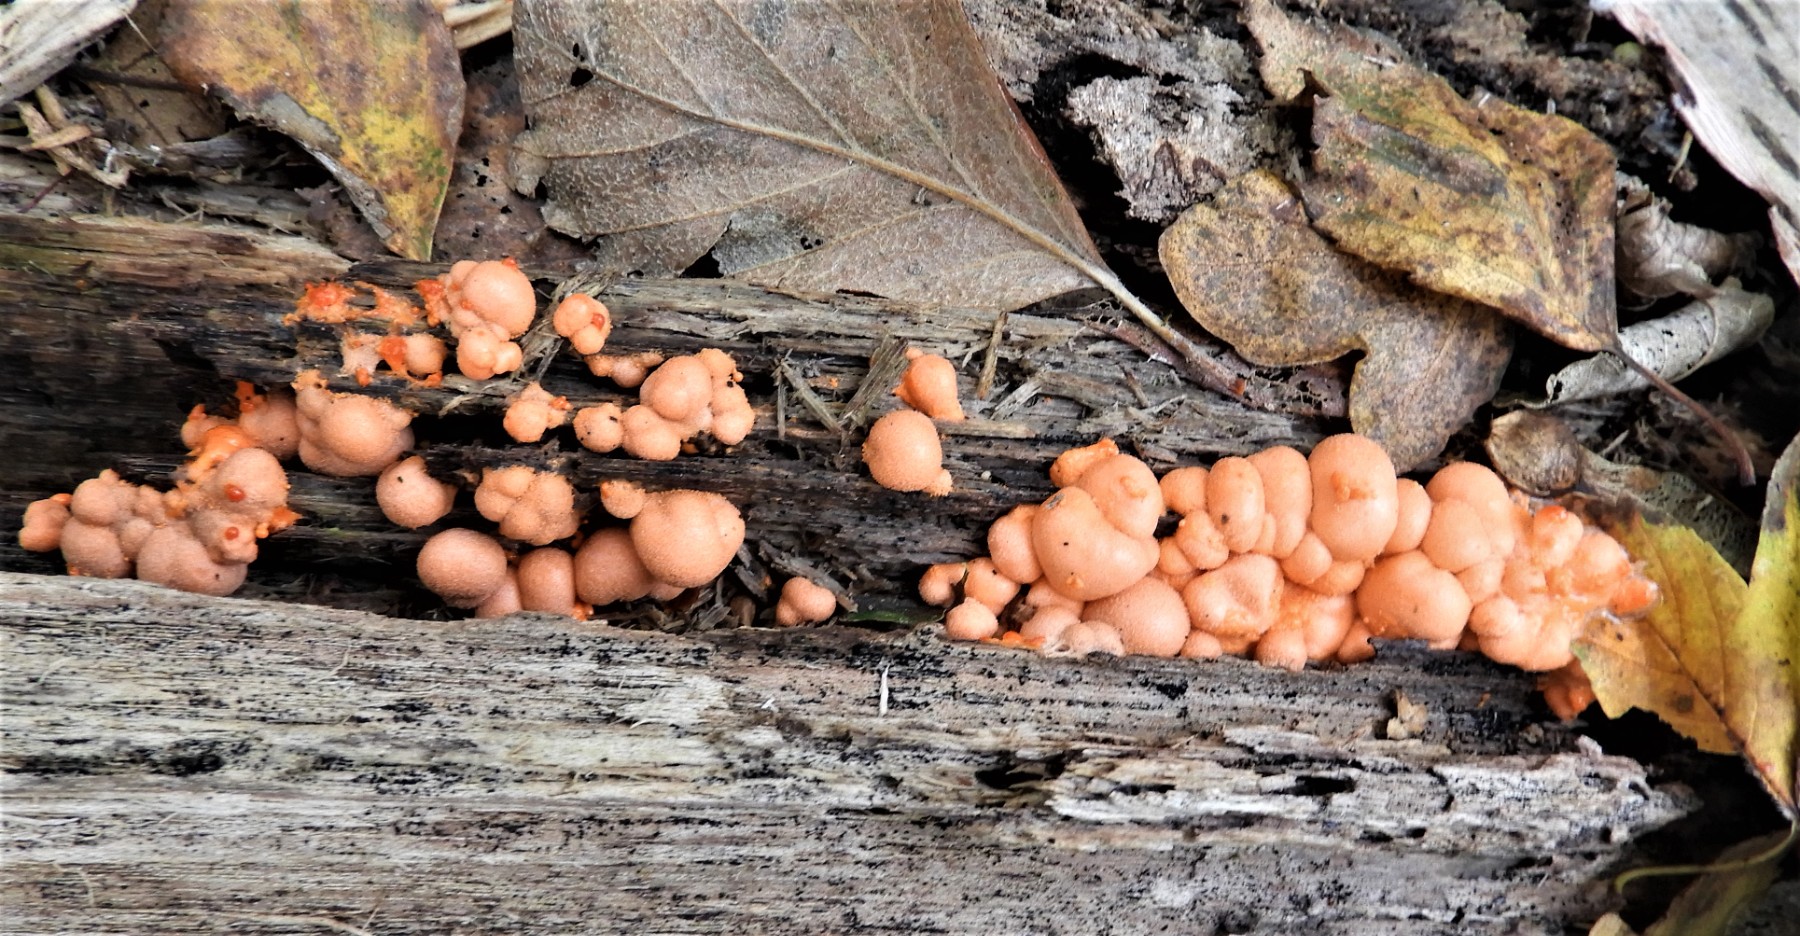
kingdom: Protozoa
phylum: Mycetozoa
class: Myxomycetes
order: Cribrariales
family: Tubiferaceae
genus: Lycogala
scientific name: Lycogala epidendrum
